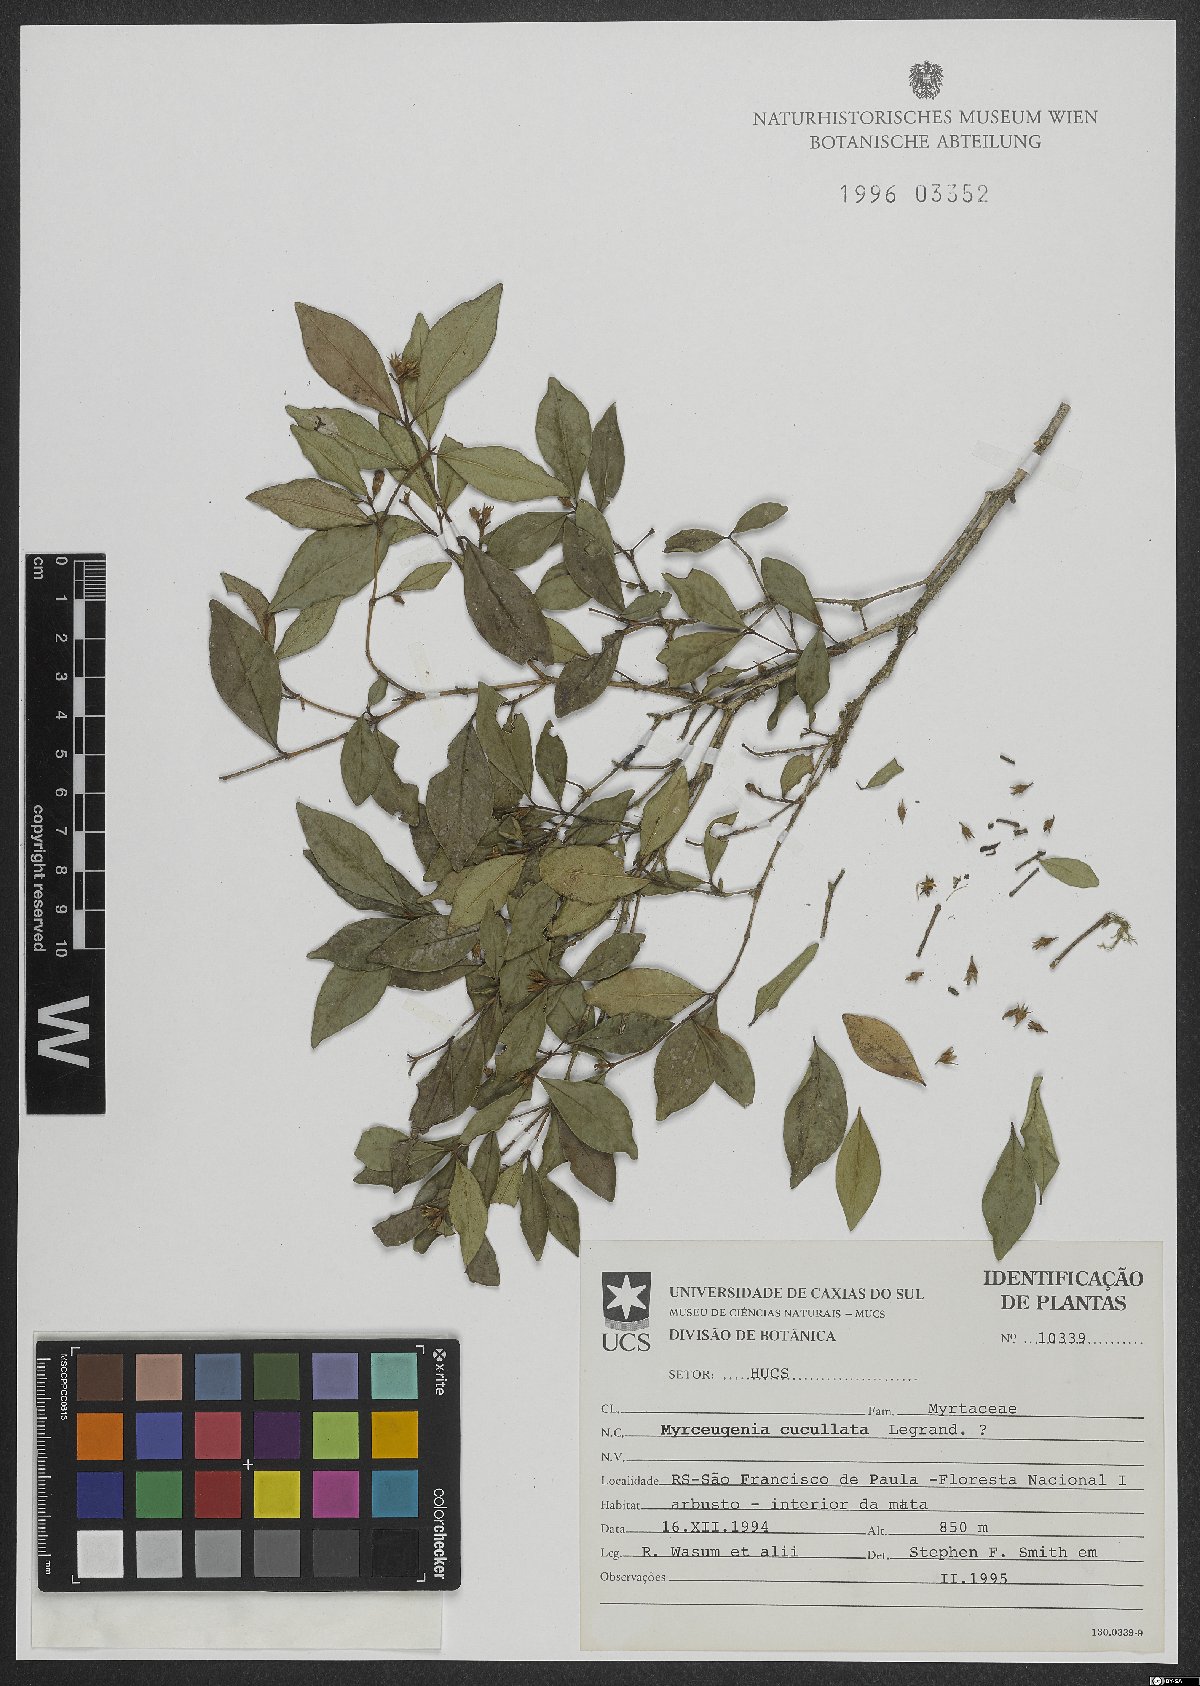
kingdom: Plantae
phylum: Tracheophyta
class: Magnoliopsida
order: Myrtales
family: Myrtaceae
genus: Myrceugenia
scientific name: Myrceugenia cucullata
